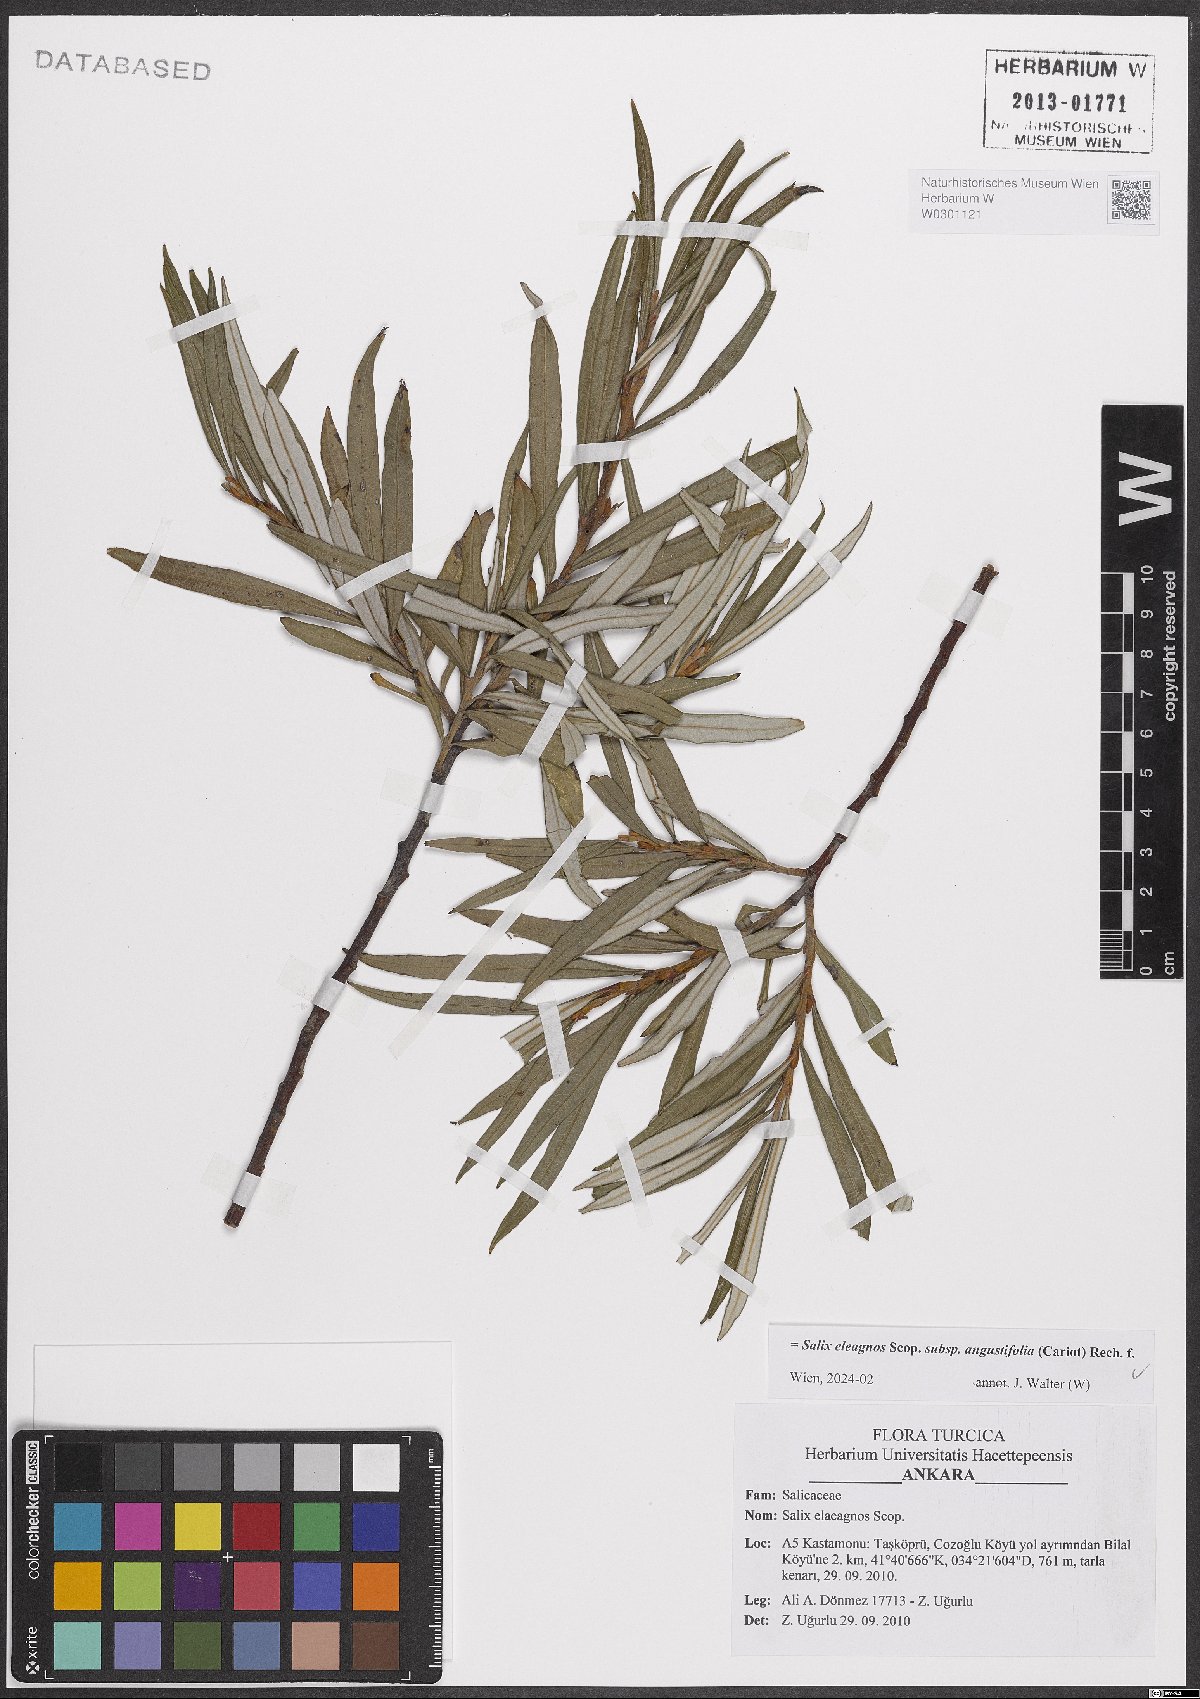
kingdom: Plantae
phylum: Tracheophyta
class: Magnoliopsida
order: Malpighiales
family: Salicaceae
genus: Salix
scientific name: Salix eleagnos
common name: Elaeagnus willow
